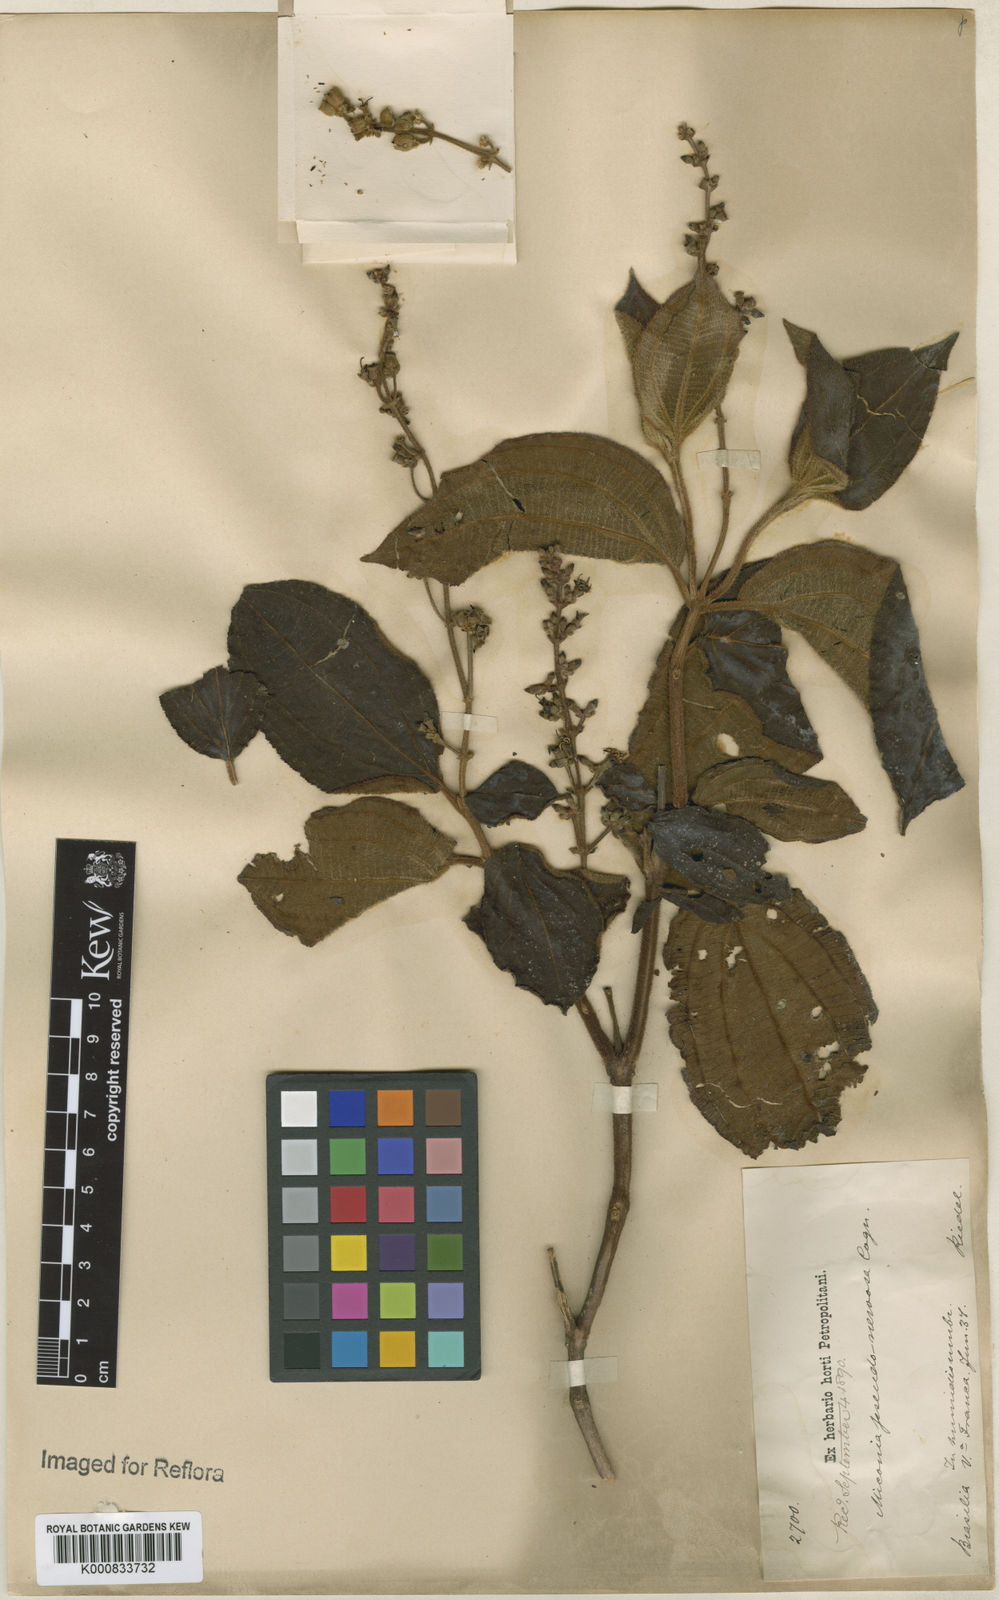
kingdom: Plantae
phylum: Tracheophyta
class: Magnoliopsida
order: Myrtales
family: Melastomataceae
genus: Miconia
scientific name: Miconia pseudonervosa
